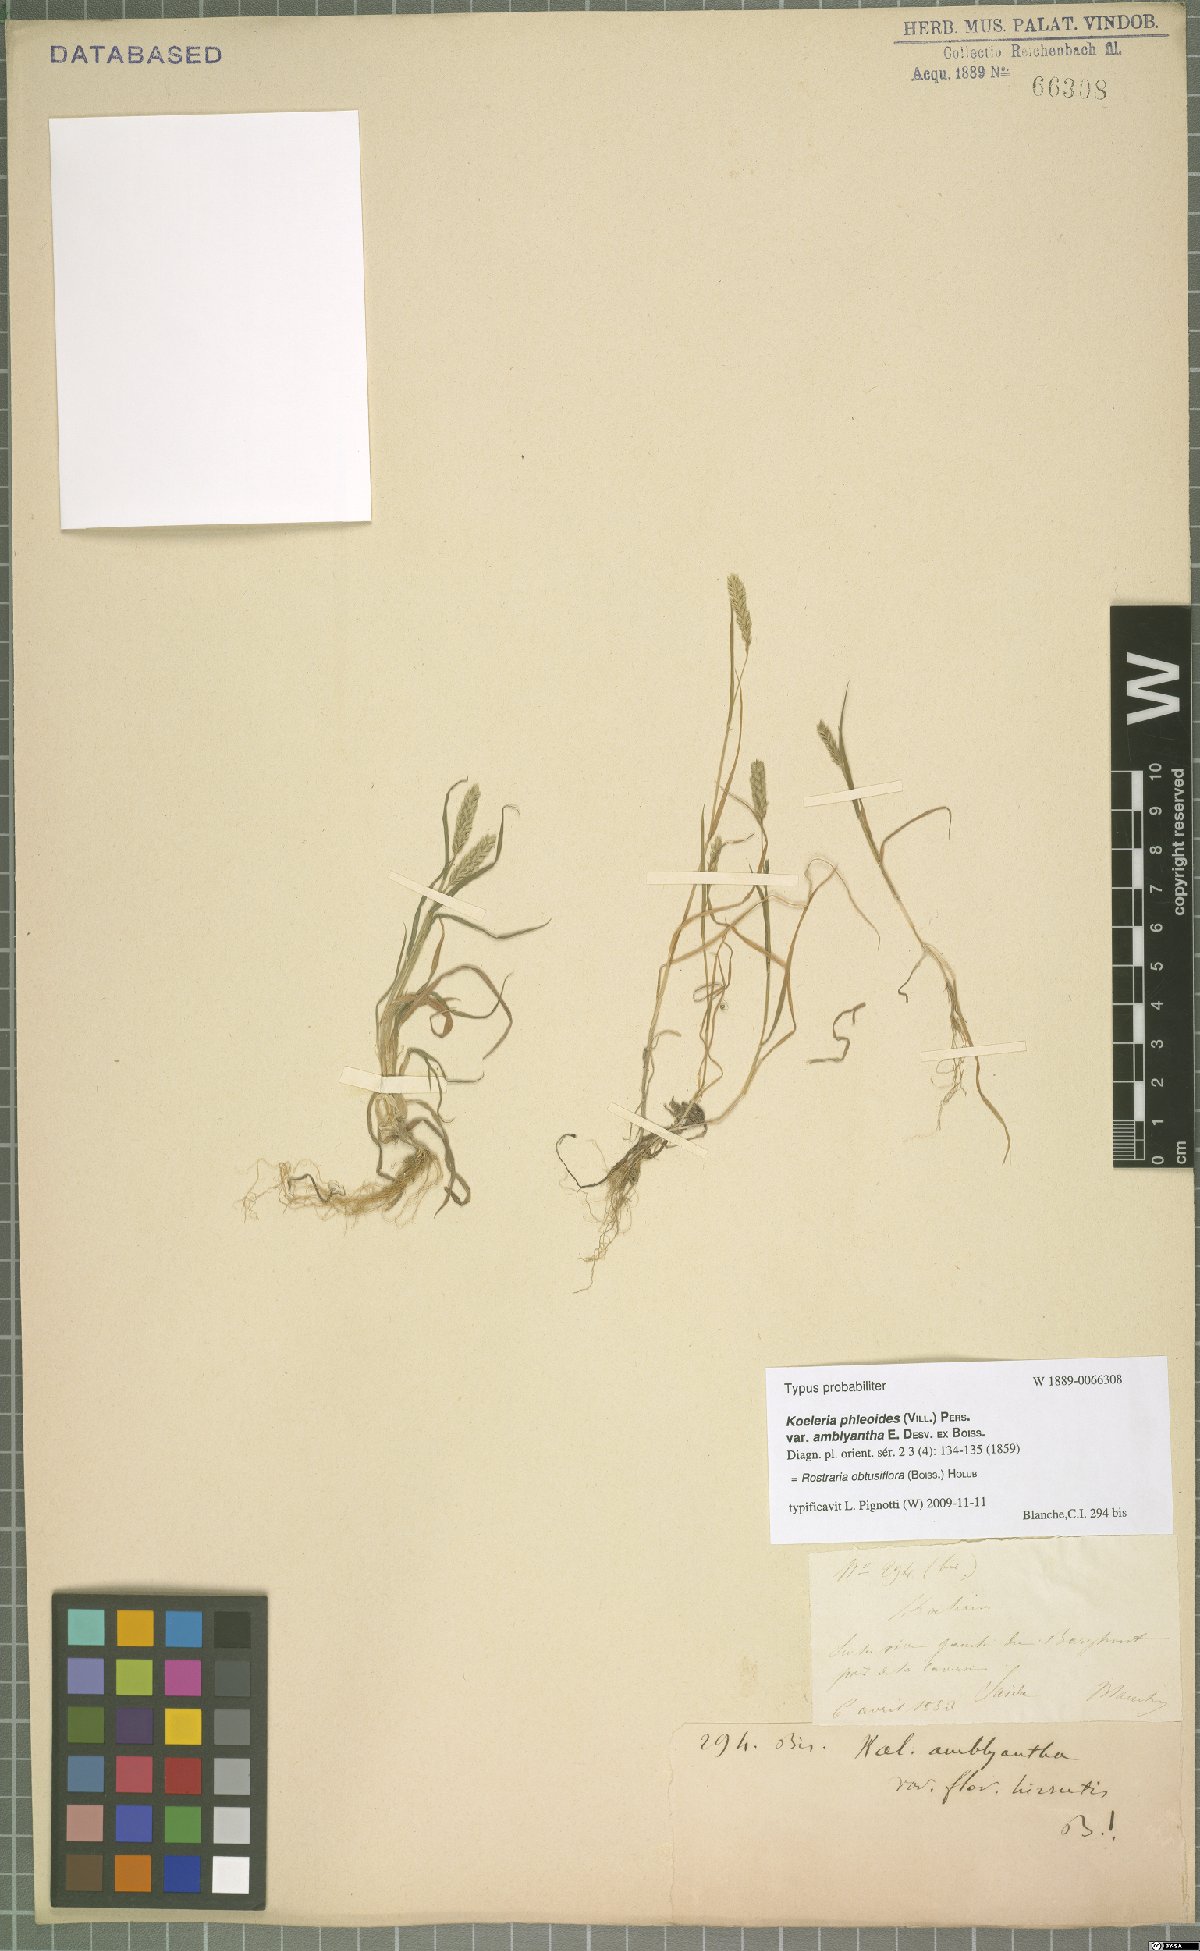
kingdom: Plantae
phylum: Tracheophyta
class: Liliopsida
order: Poales
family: Poaceae
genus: Rostraria
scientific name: Rostraria obtusiflora
